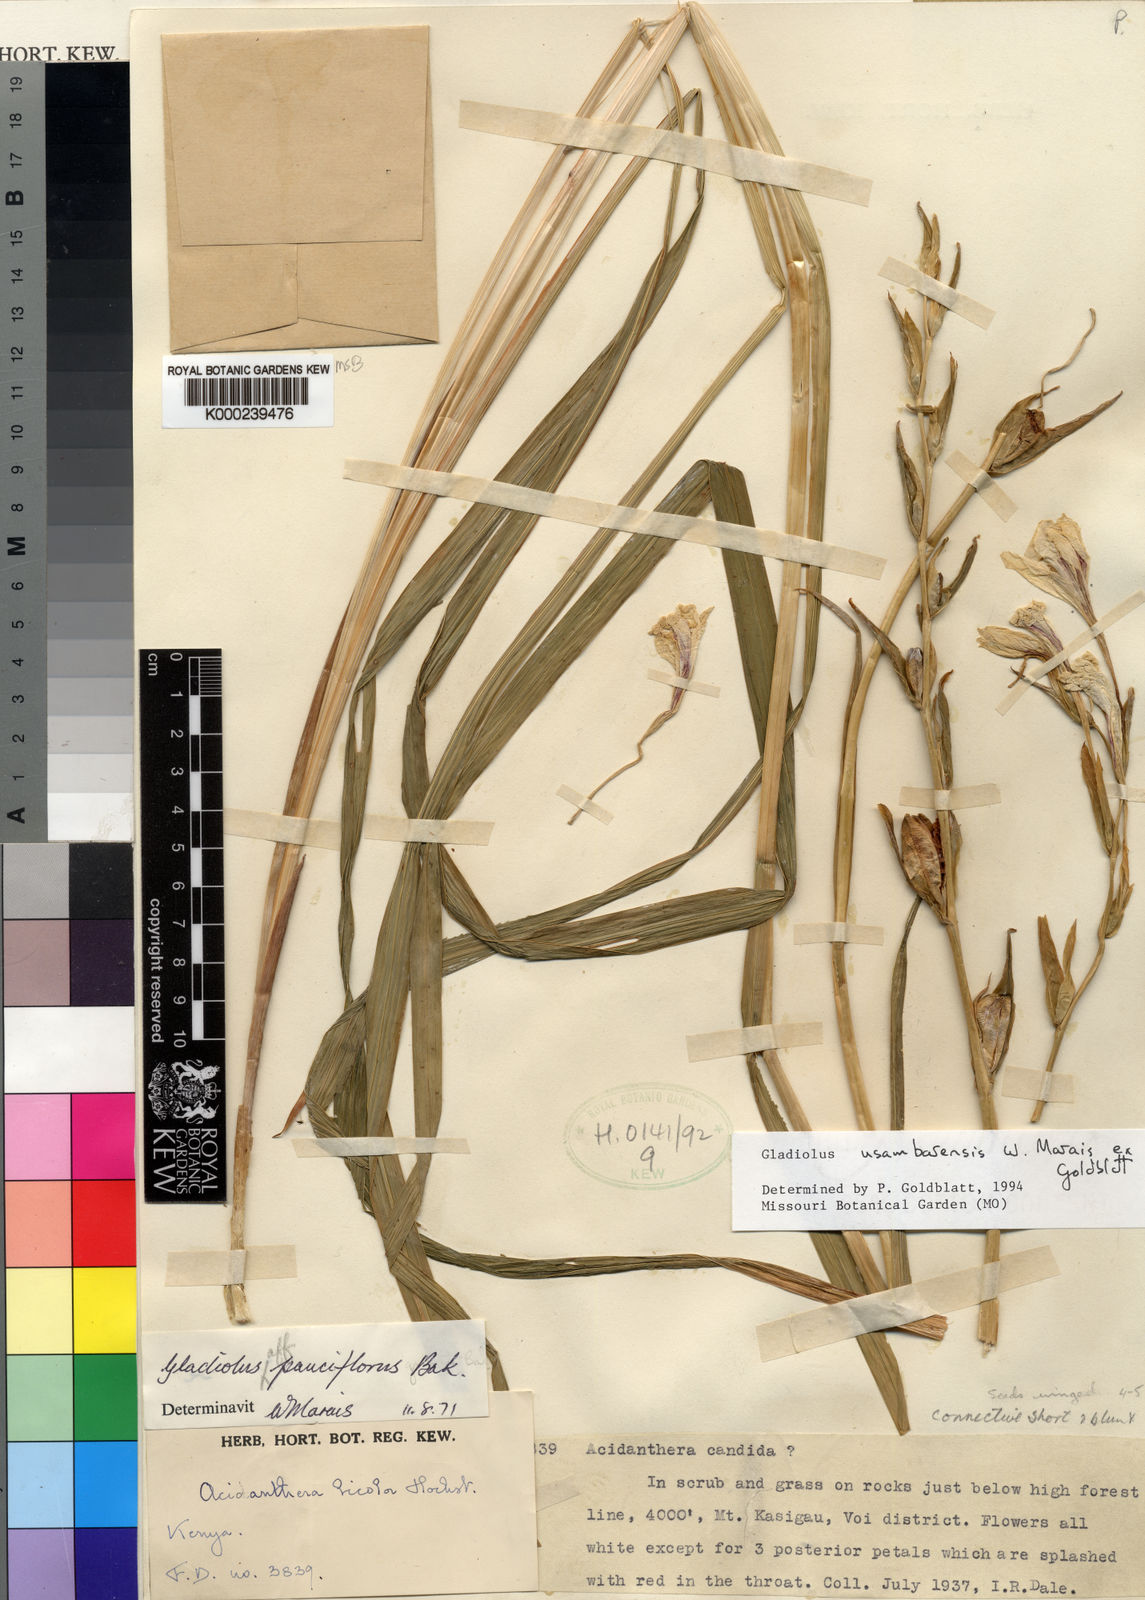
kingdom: Plantae
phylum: Tracheophyta
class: Liliopsida
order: Asparagales
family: Iridaceae
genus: Gladiolus
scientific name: Gladiolus usambarensis
